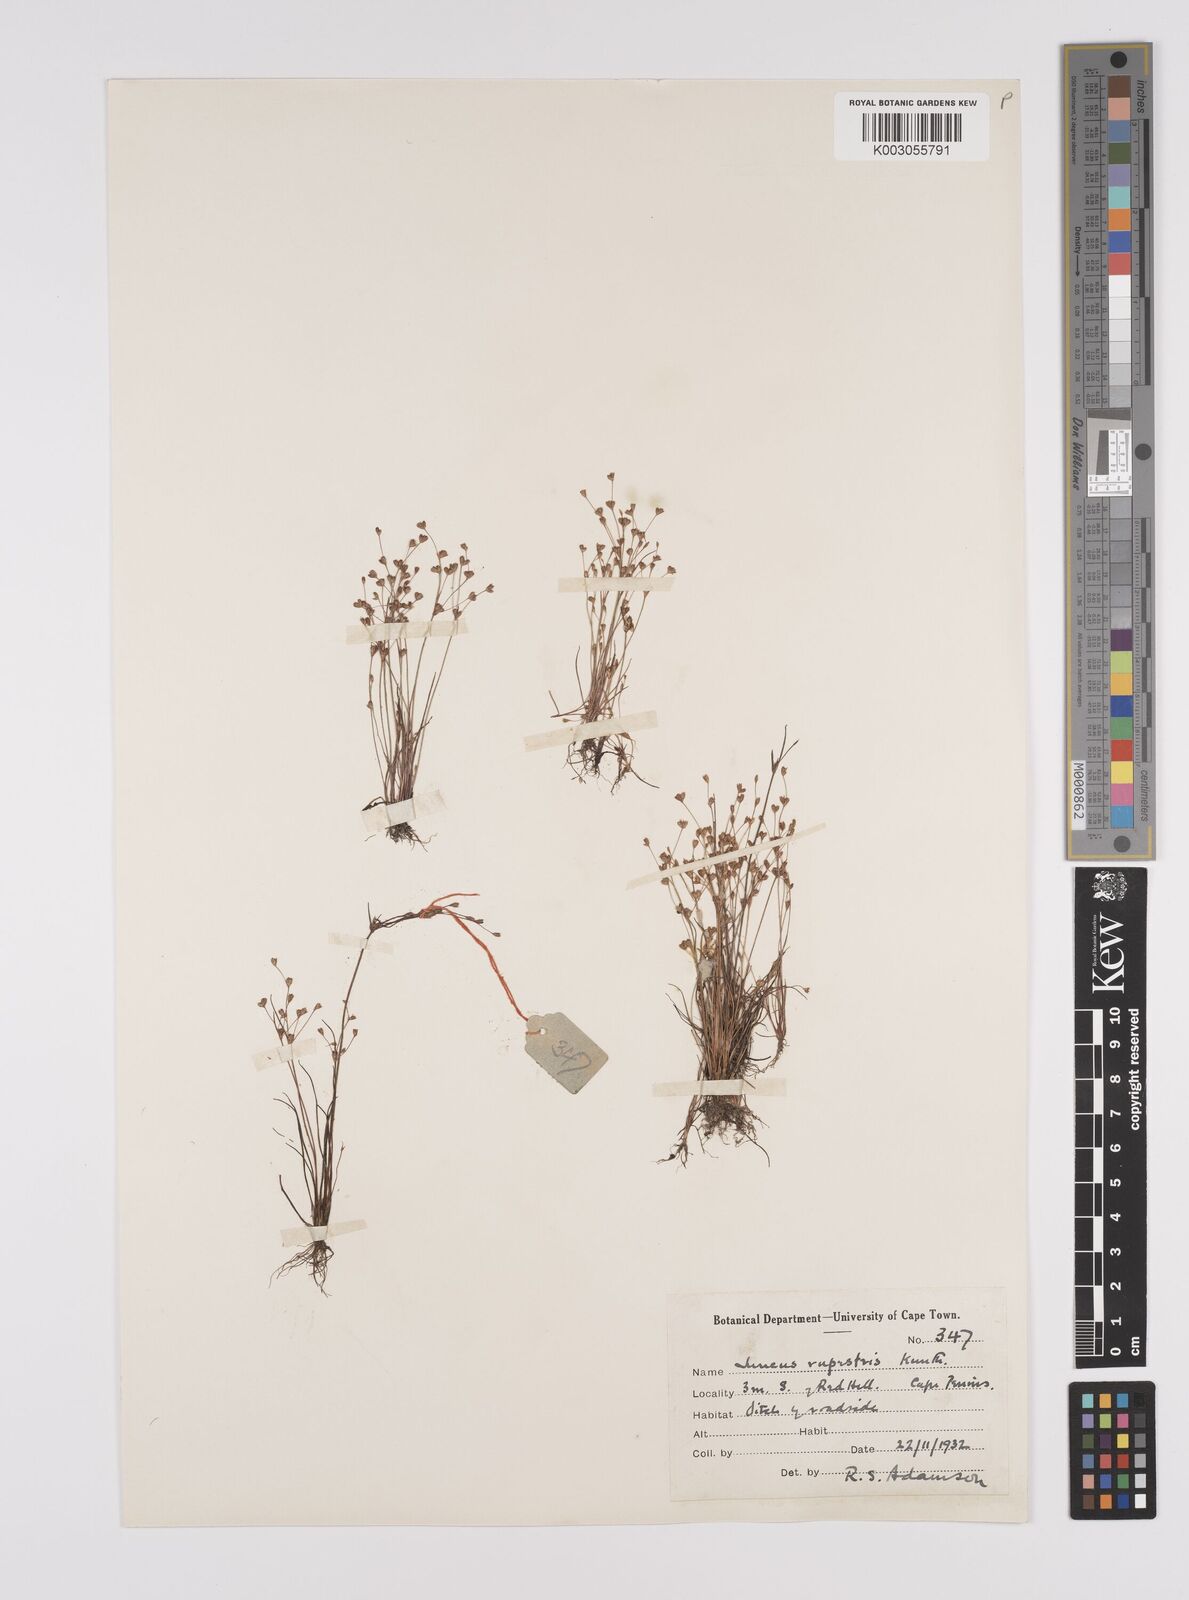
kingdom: Plantae
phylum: Tracheophyta
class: Liliopsida
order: Poales
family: Juncaceae
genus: Juncus
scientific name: Juncus rupestris
